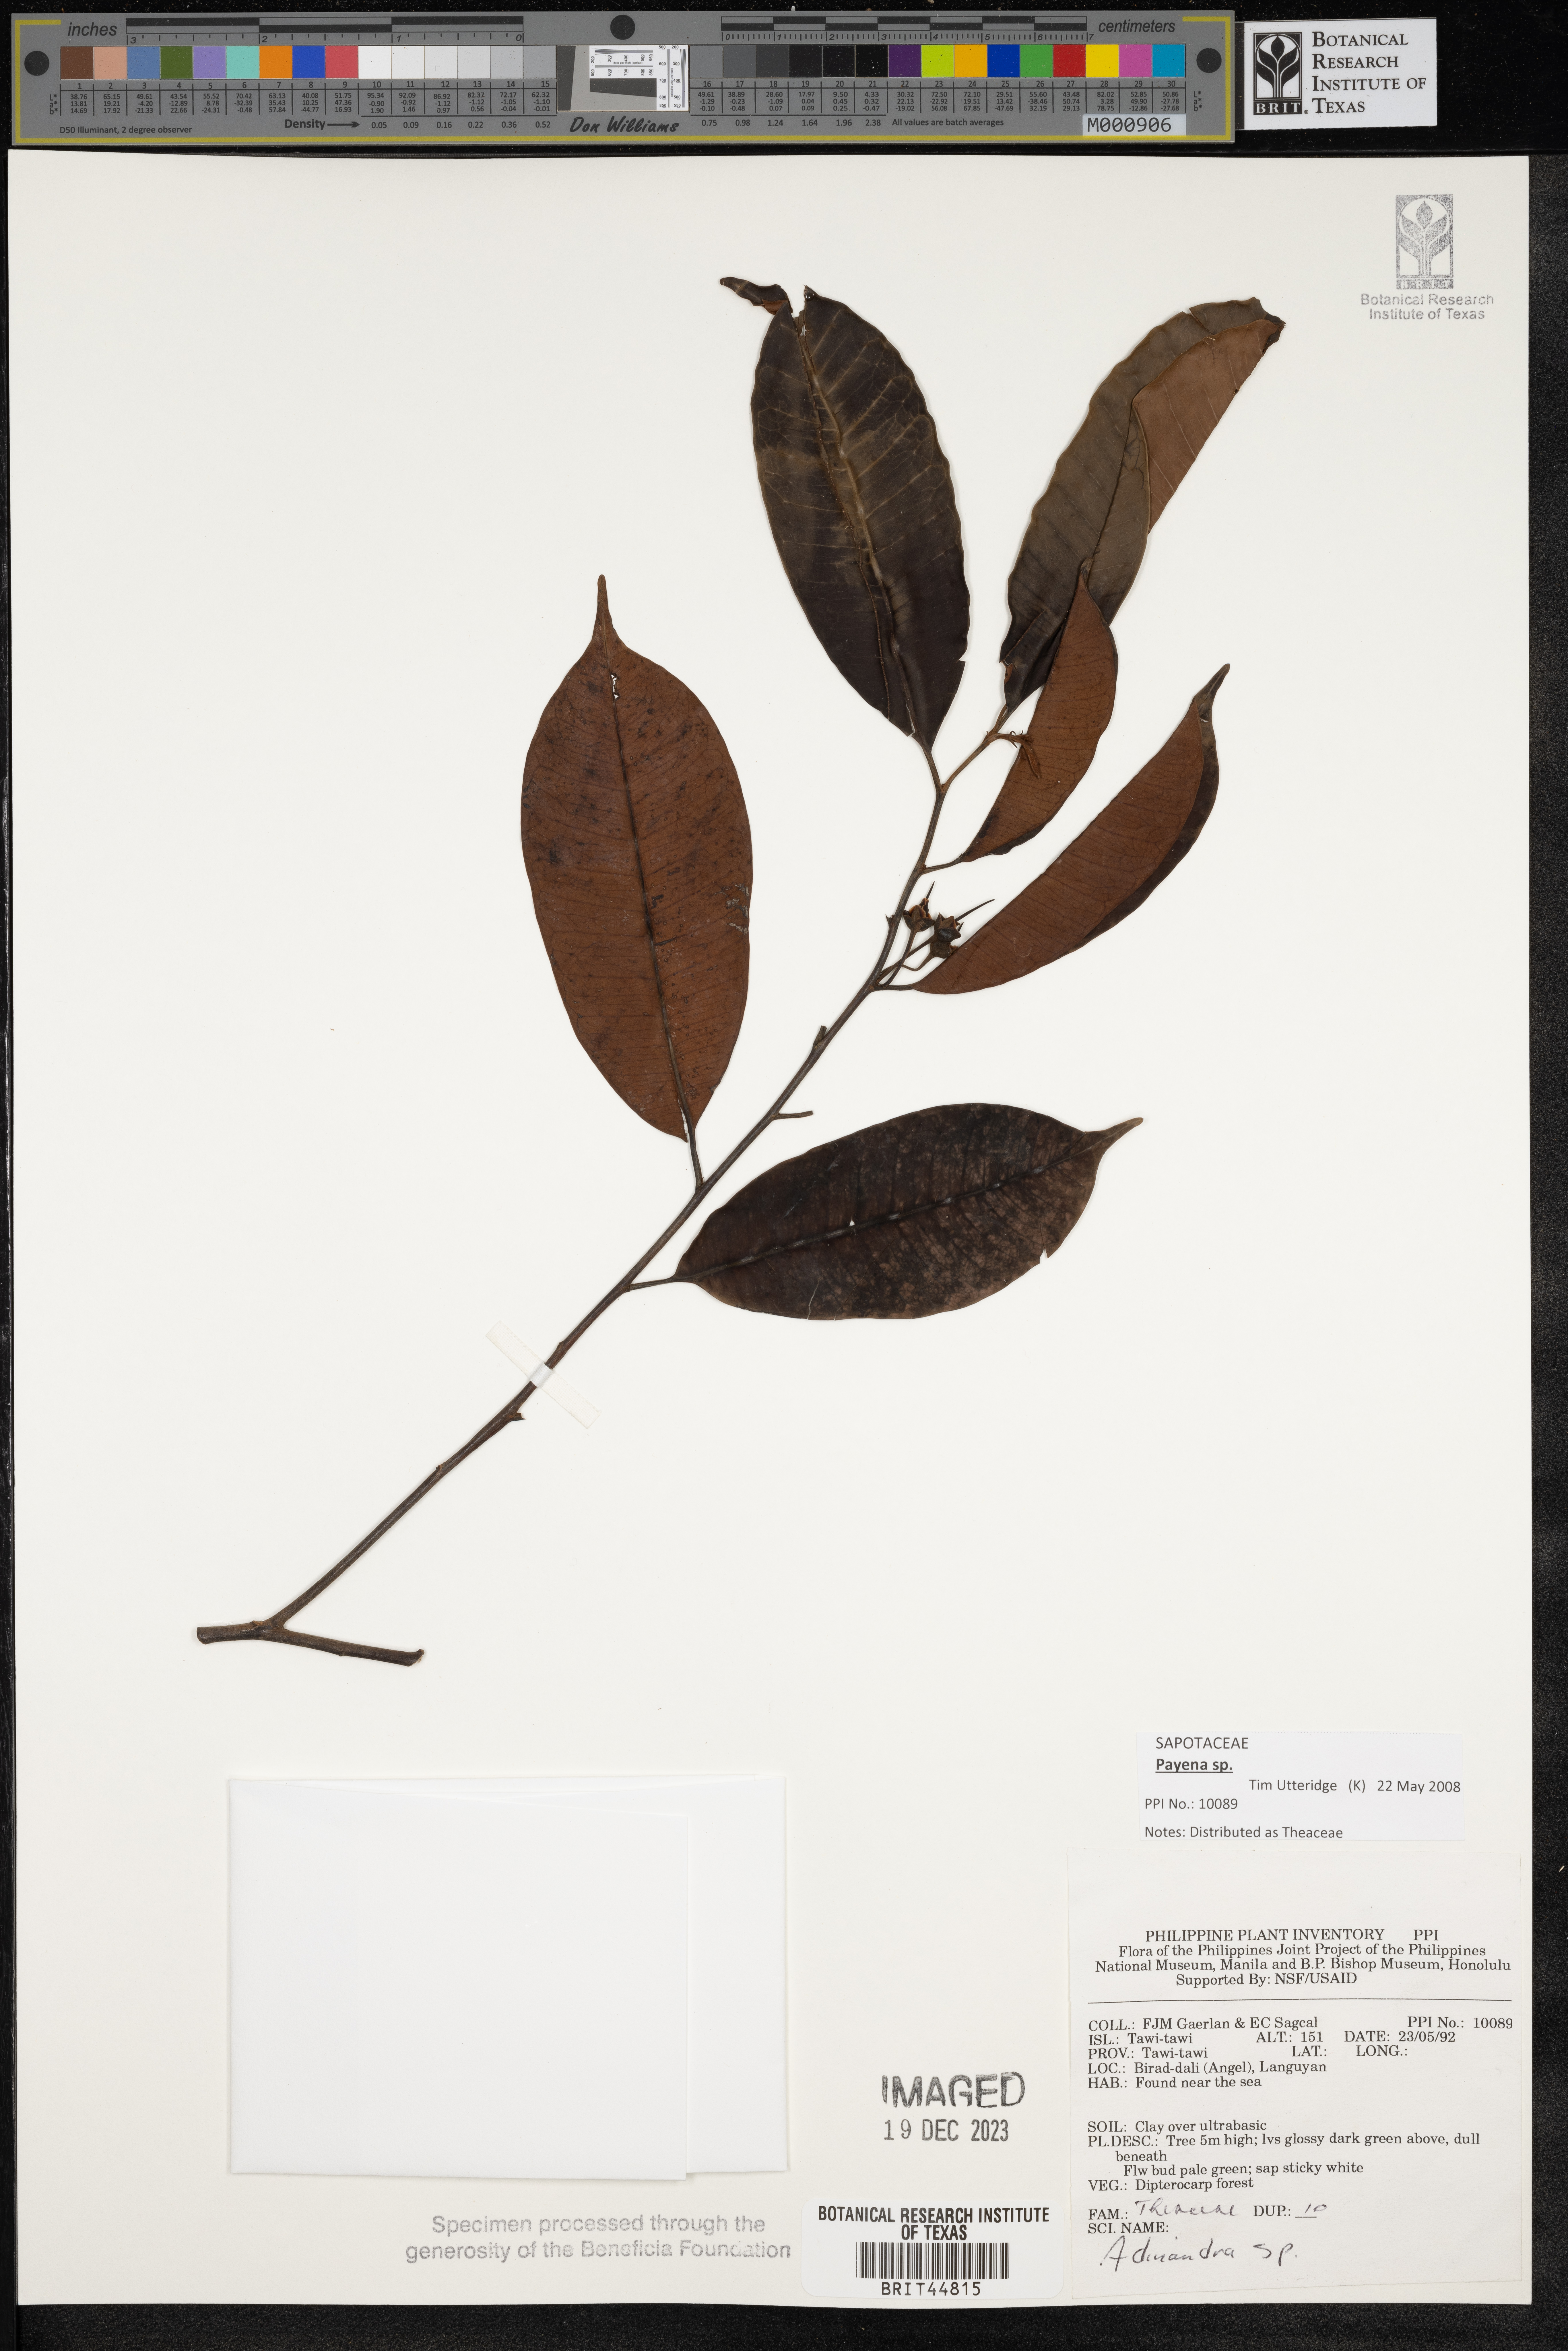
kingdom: Plantae
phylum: Tracheophyta
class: Magnoliopsida
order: Ericales
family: Pentaphylacaceae
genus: Adinandra
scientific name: Adinandra
